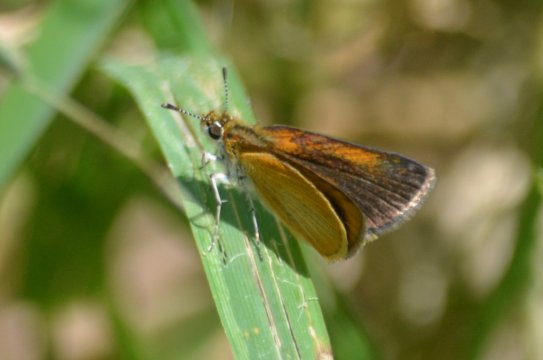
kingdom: Animalia
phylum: Arthropoda
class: Insecta
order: Lepidoptera
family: Hesperiidae
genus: Ancyloxypha
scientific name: Ancyloxypha numitor
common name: Least Skipper
